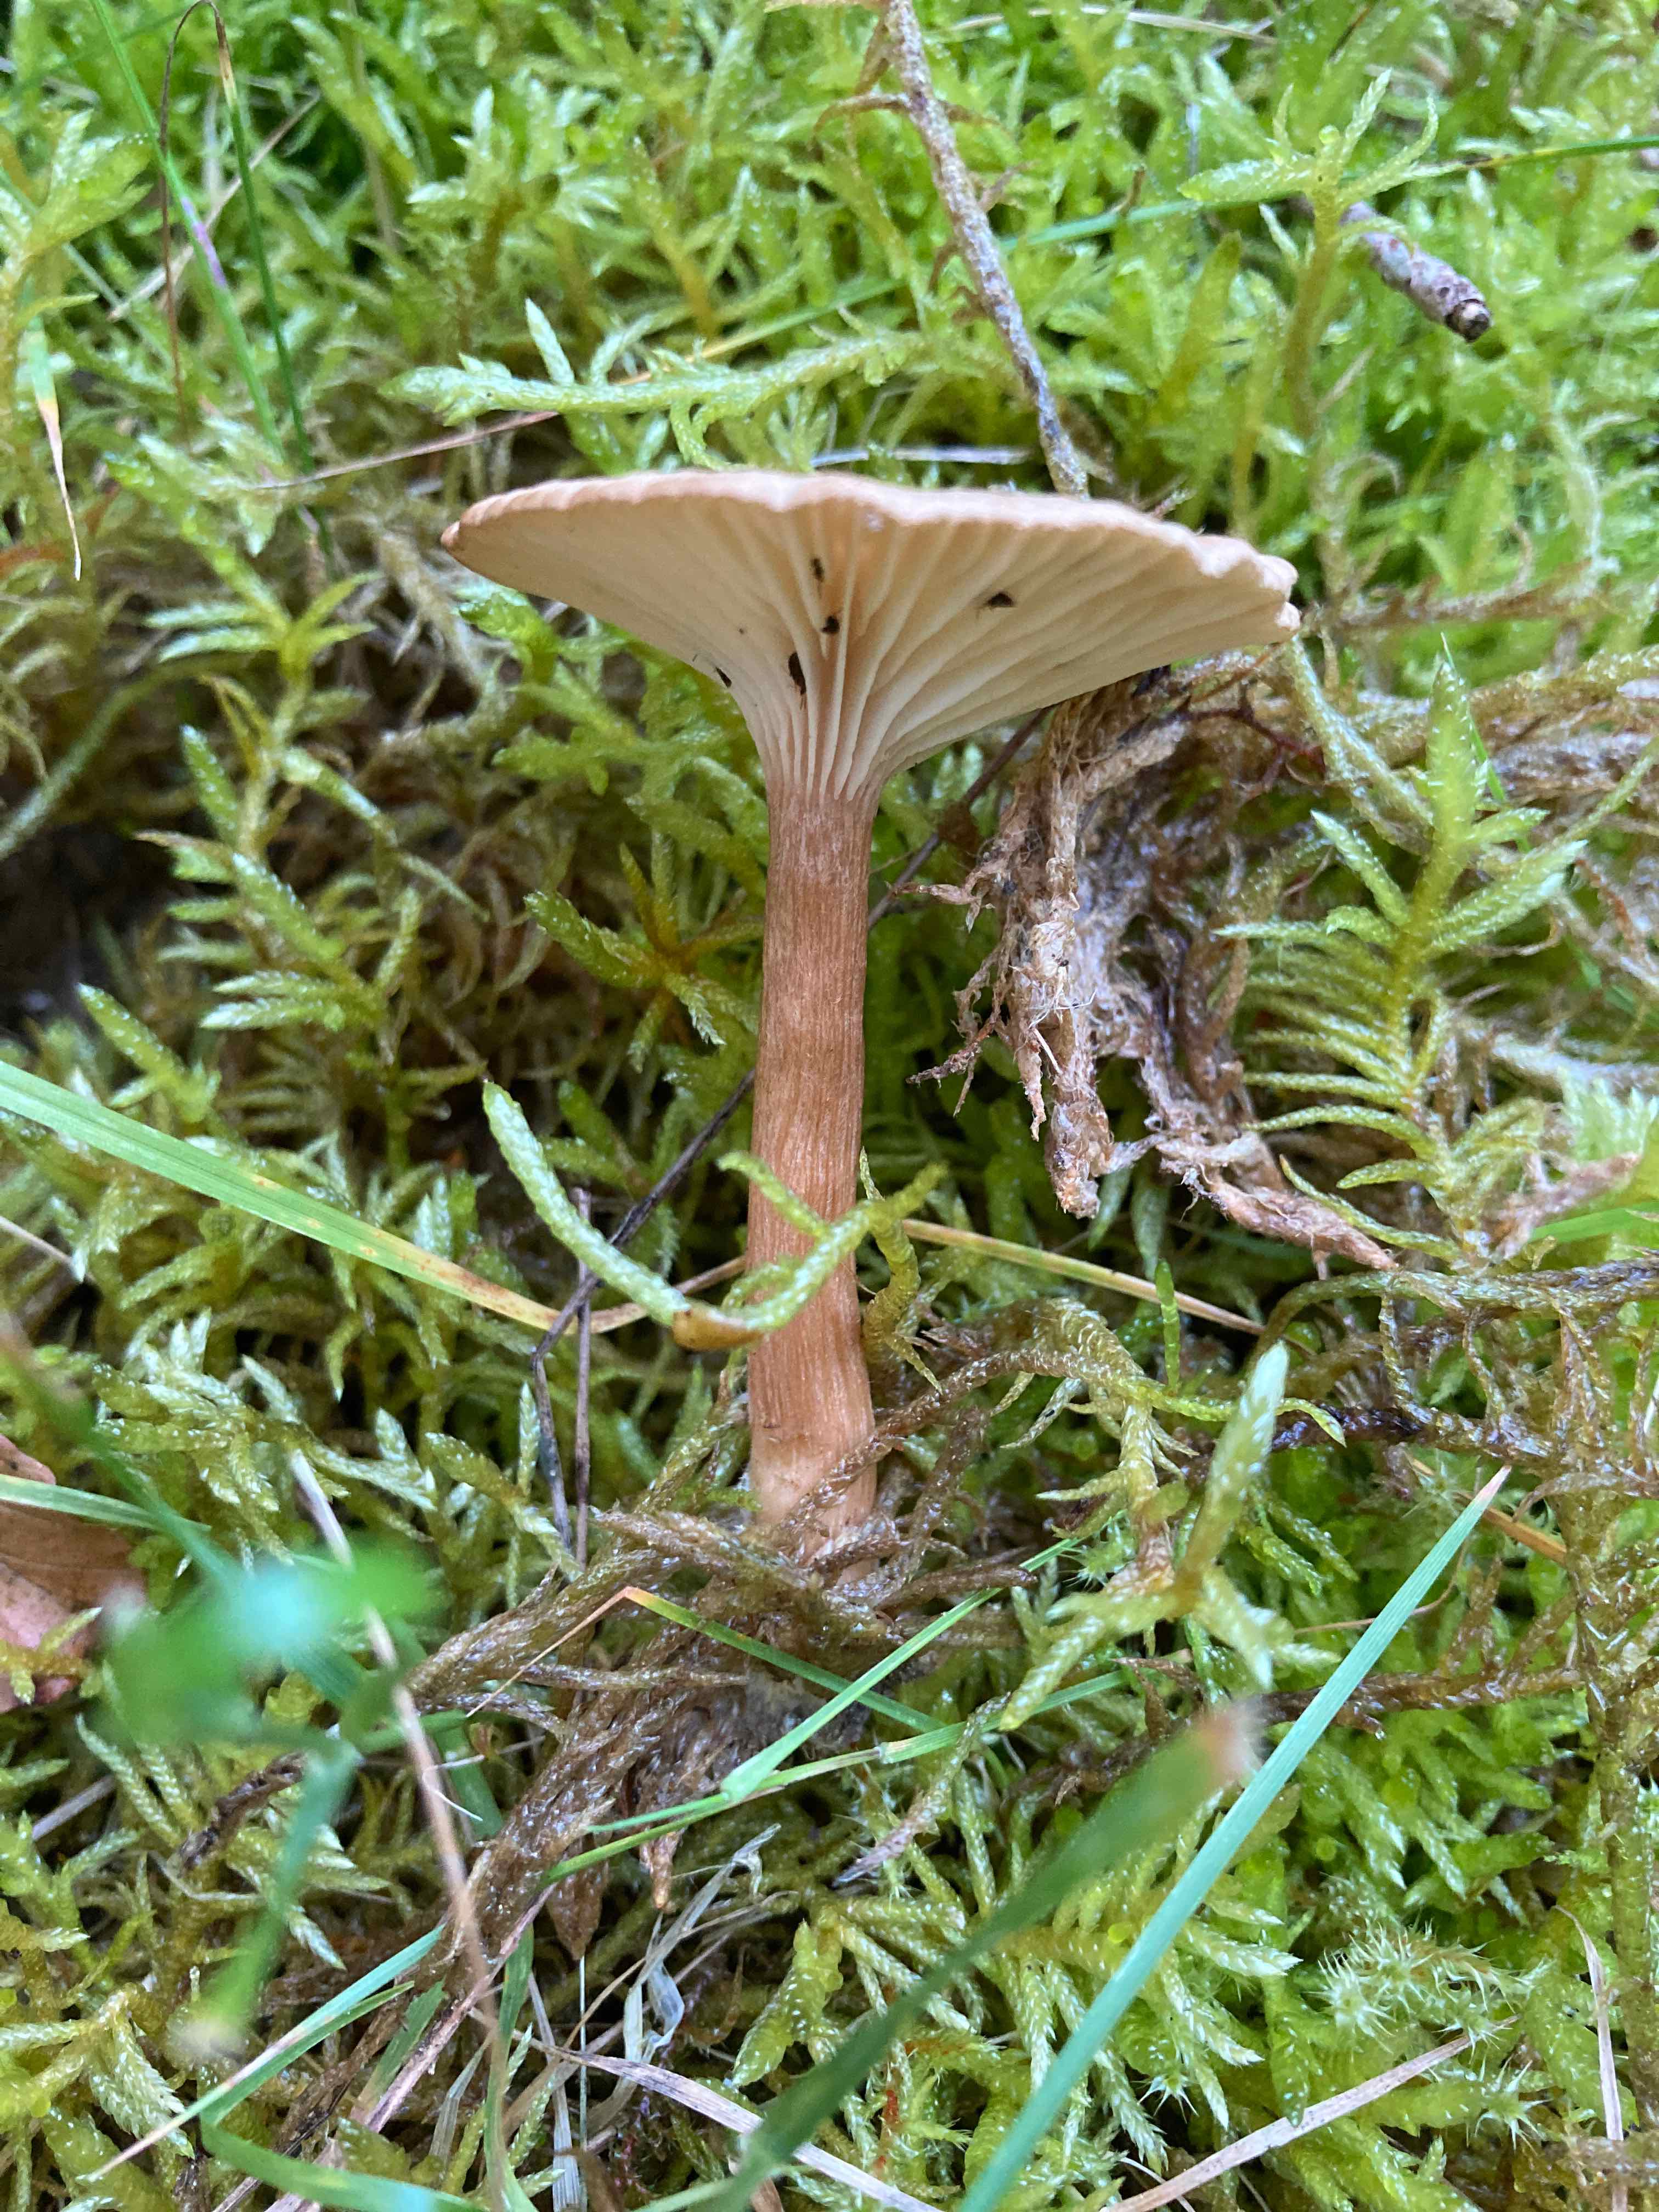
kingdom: Fungi
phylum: Basidiomycota
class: Agaricomycetes
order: Agaricales
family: Tricholomataceae
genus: Infundibulicybe
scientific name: Infundibulicybe squamulosa
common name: småskællet tragthat
